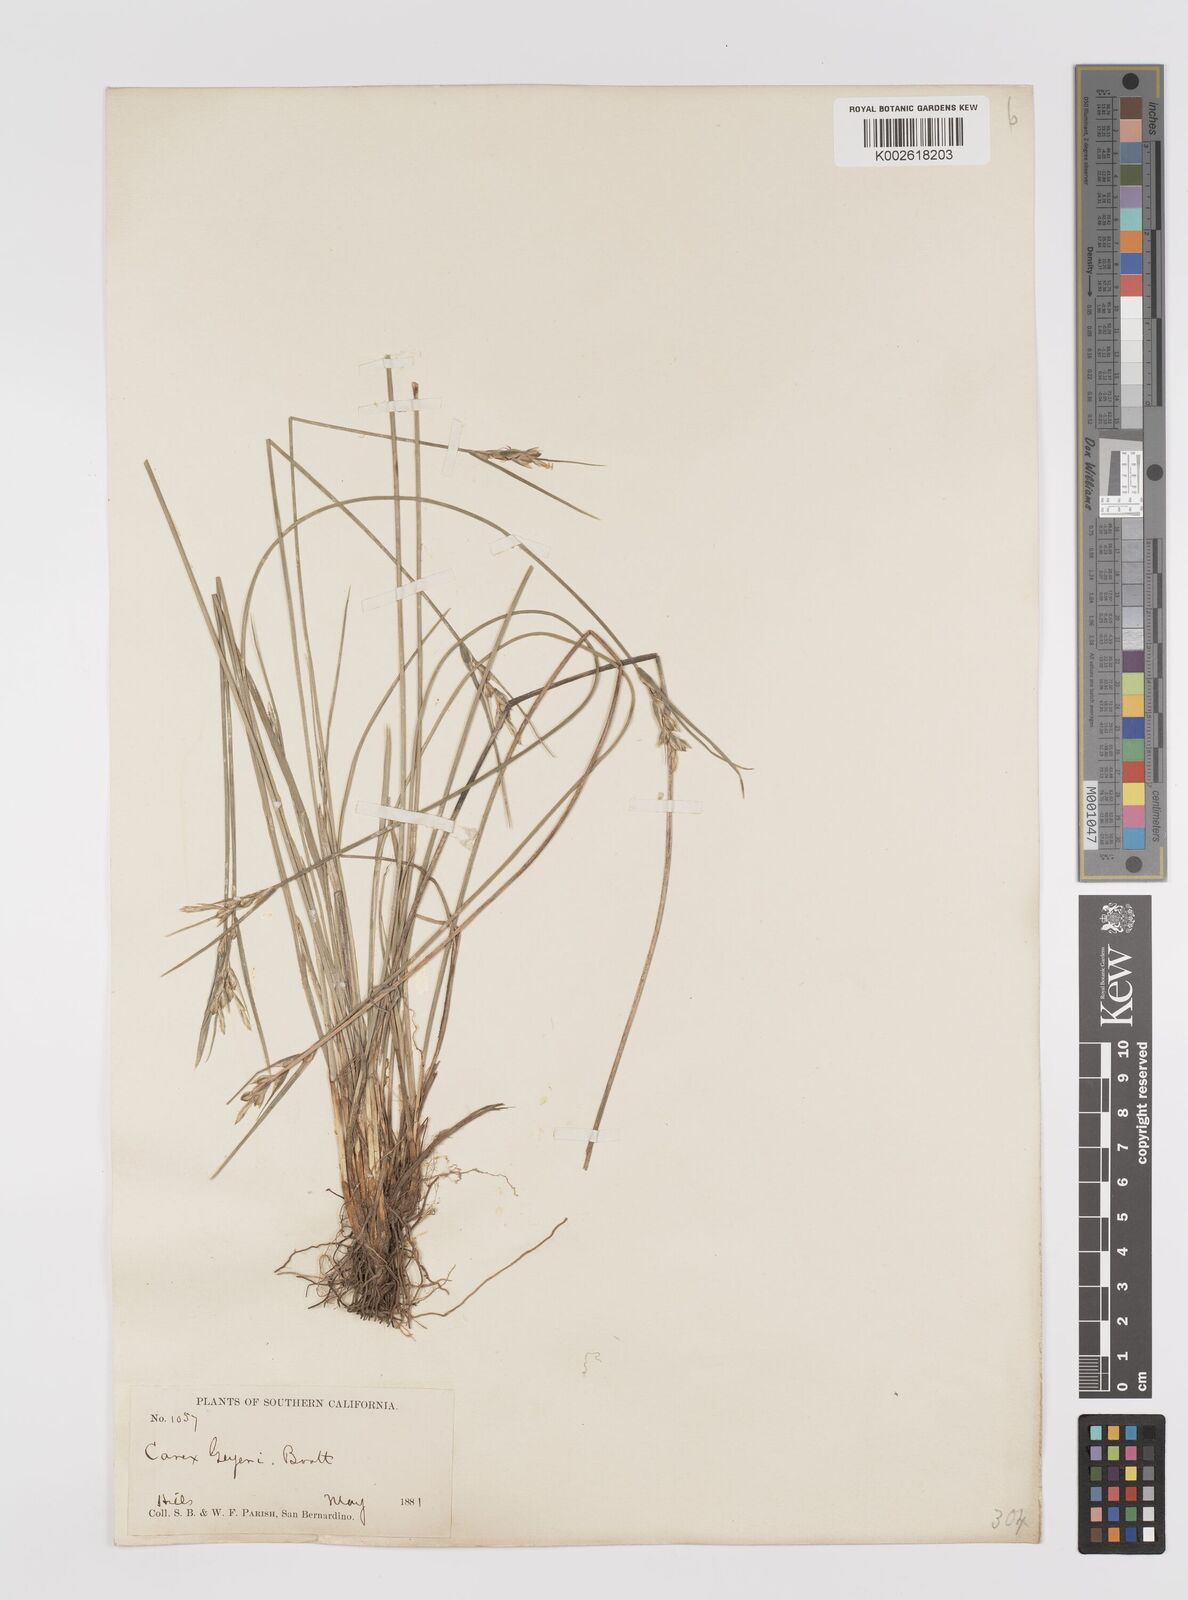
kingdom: Plantae
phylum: Tracheophyta
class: Liliopsida
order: Poales
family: Cyperaceae
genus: Carex
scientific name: Carex geyeri
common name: Elk sedge
